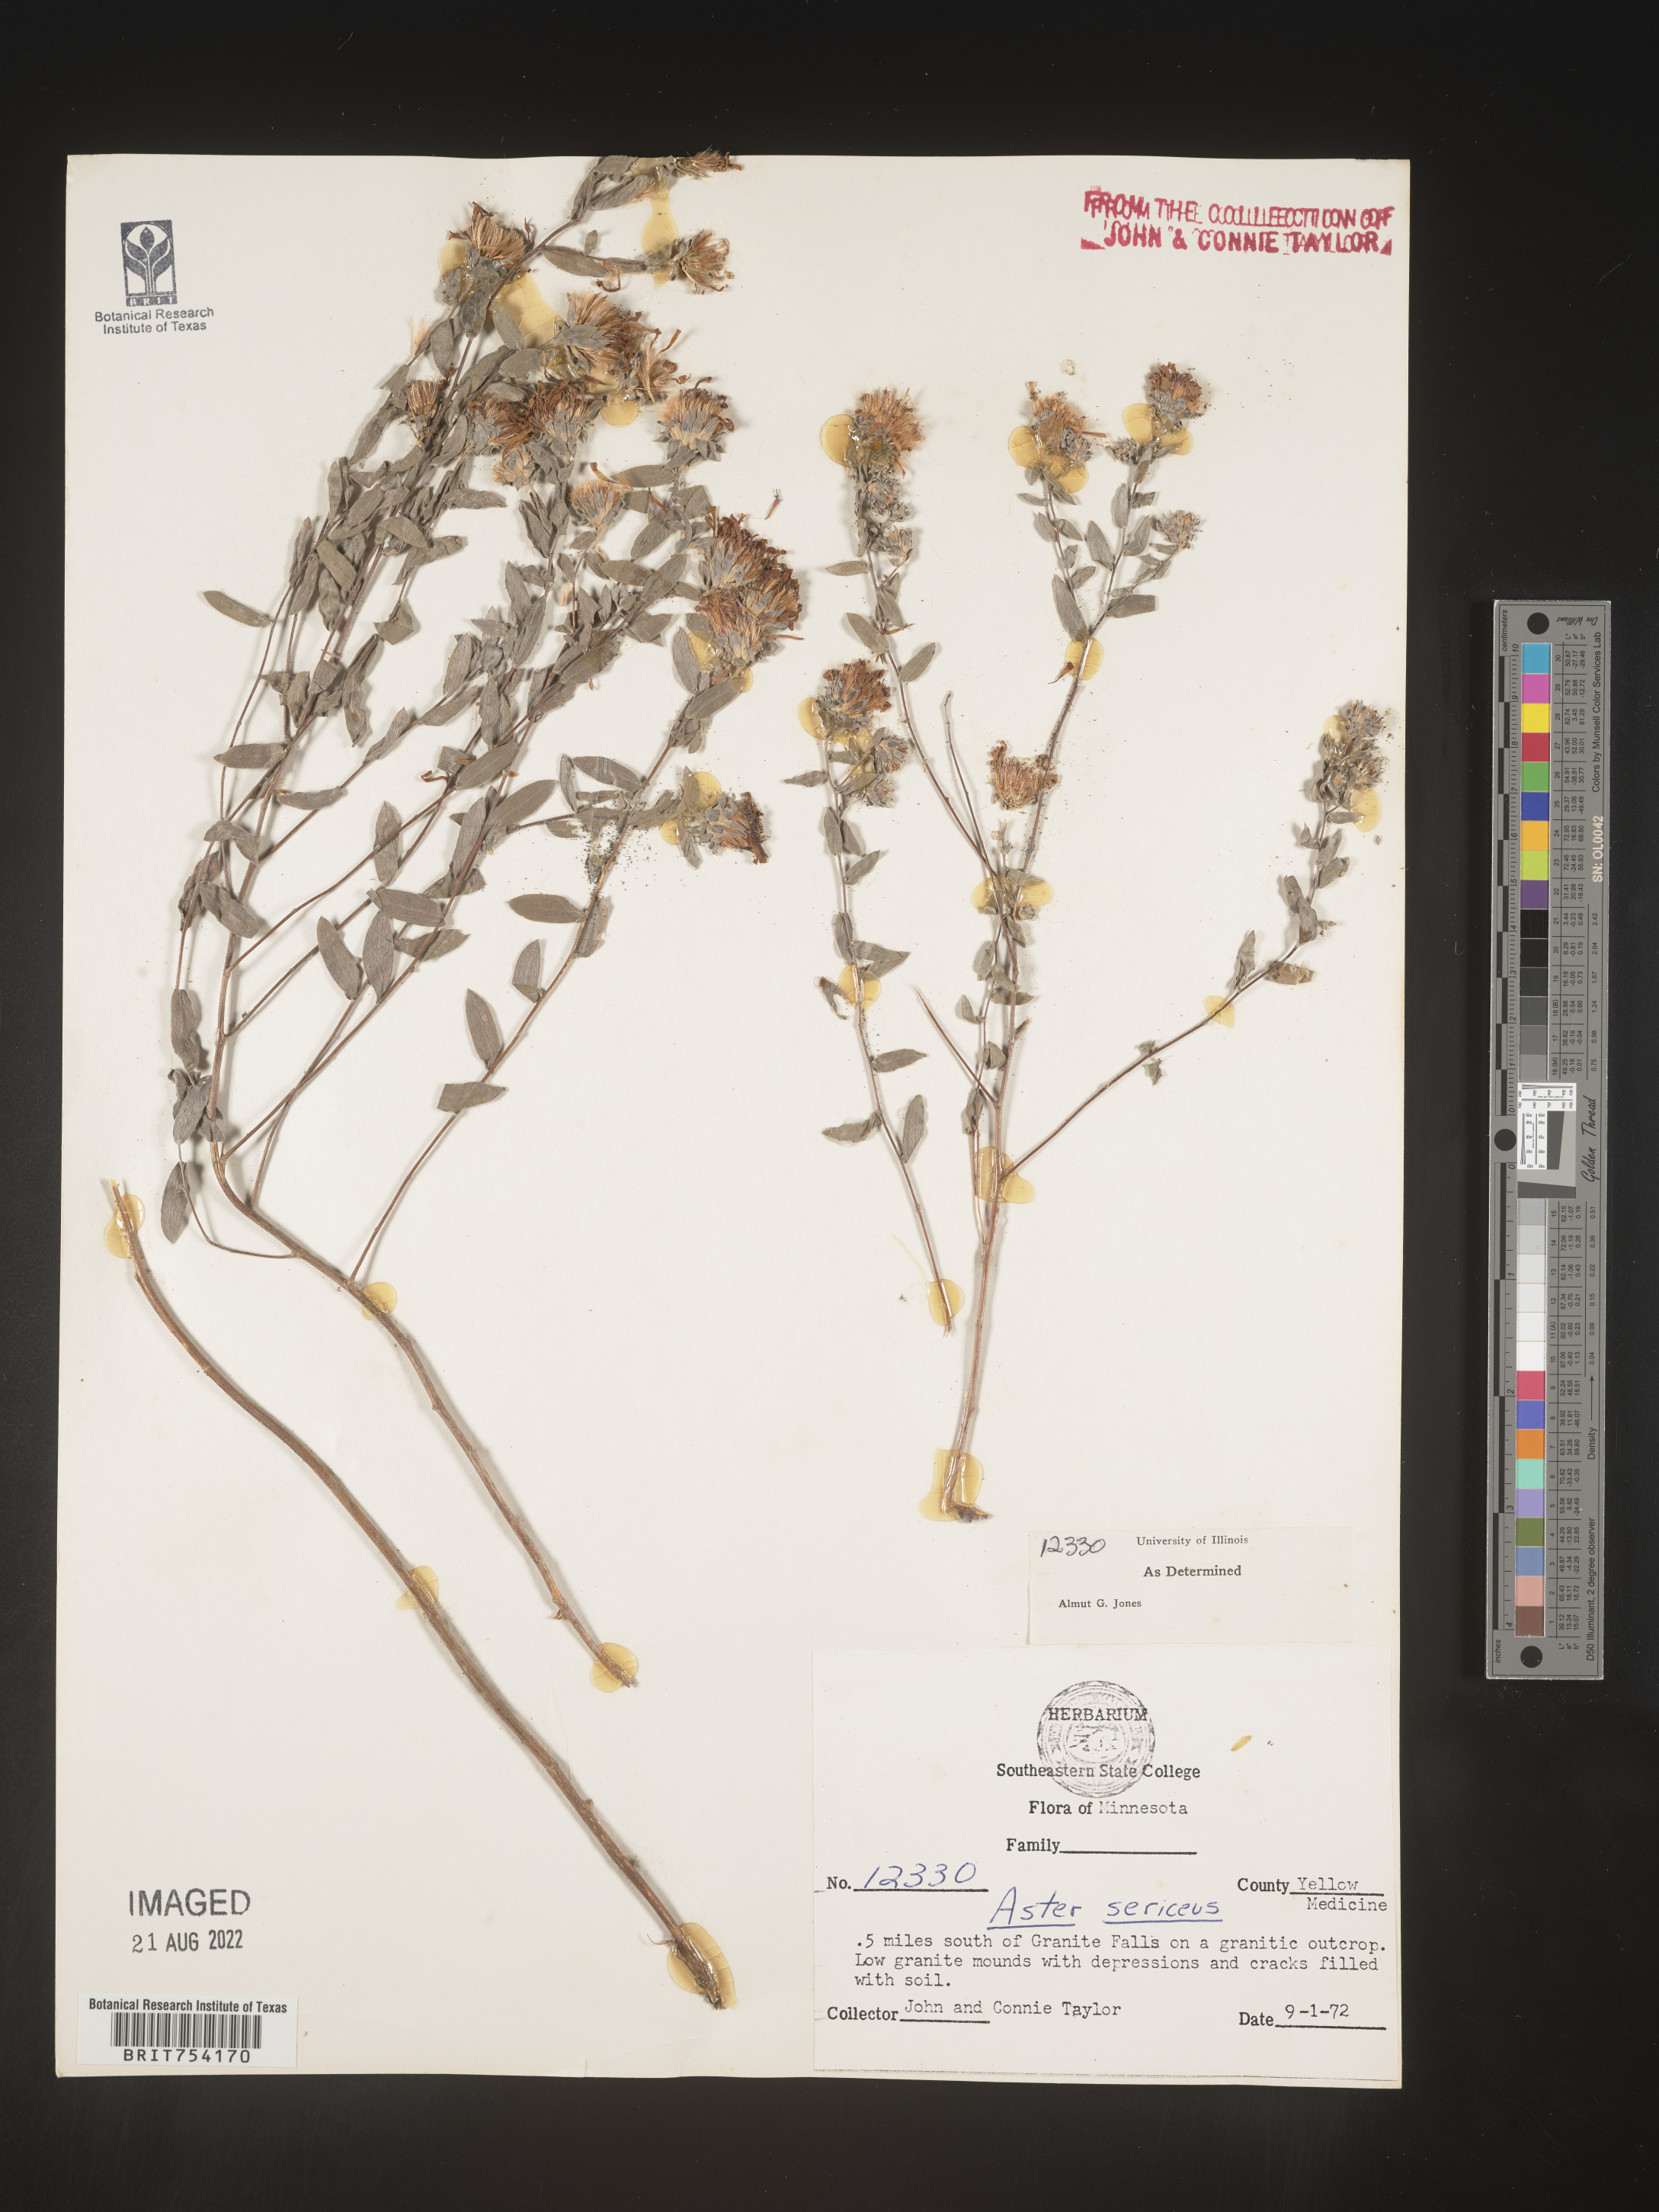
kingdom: Plantae
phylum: Tracheophyta
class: Magnoliopsida
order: Asterales
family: Asteraceae
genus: Symphyotrichum
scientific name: Symphyotrichum sericeum
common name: Silky aster
